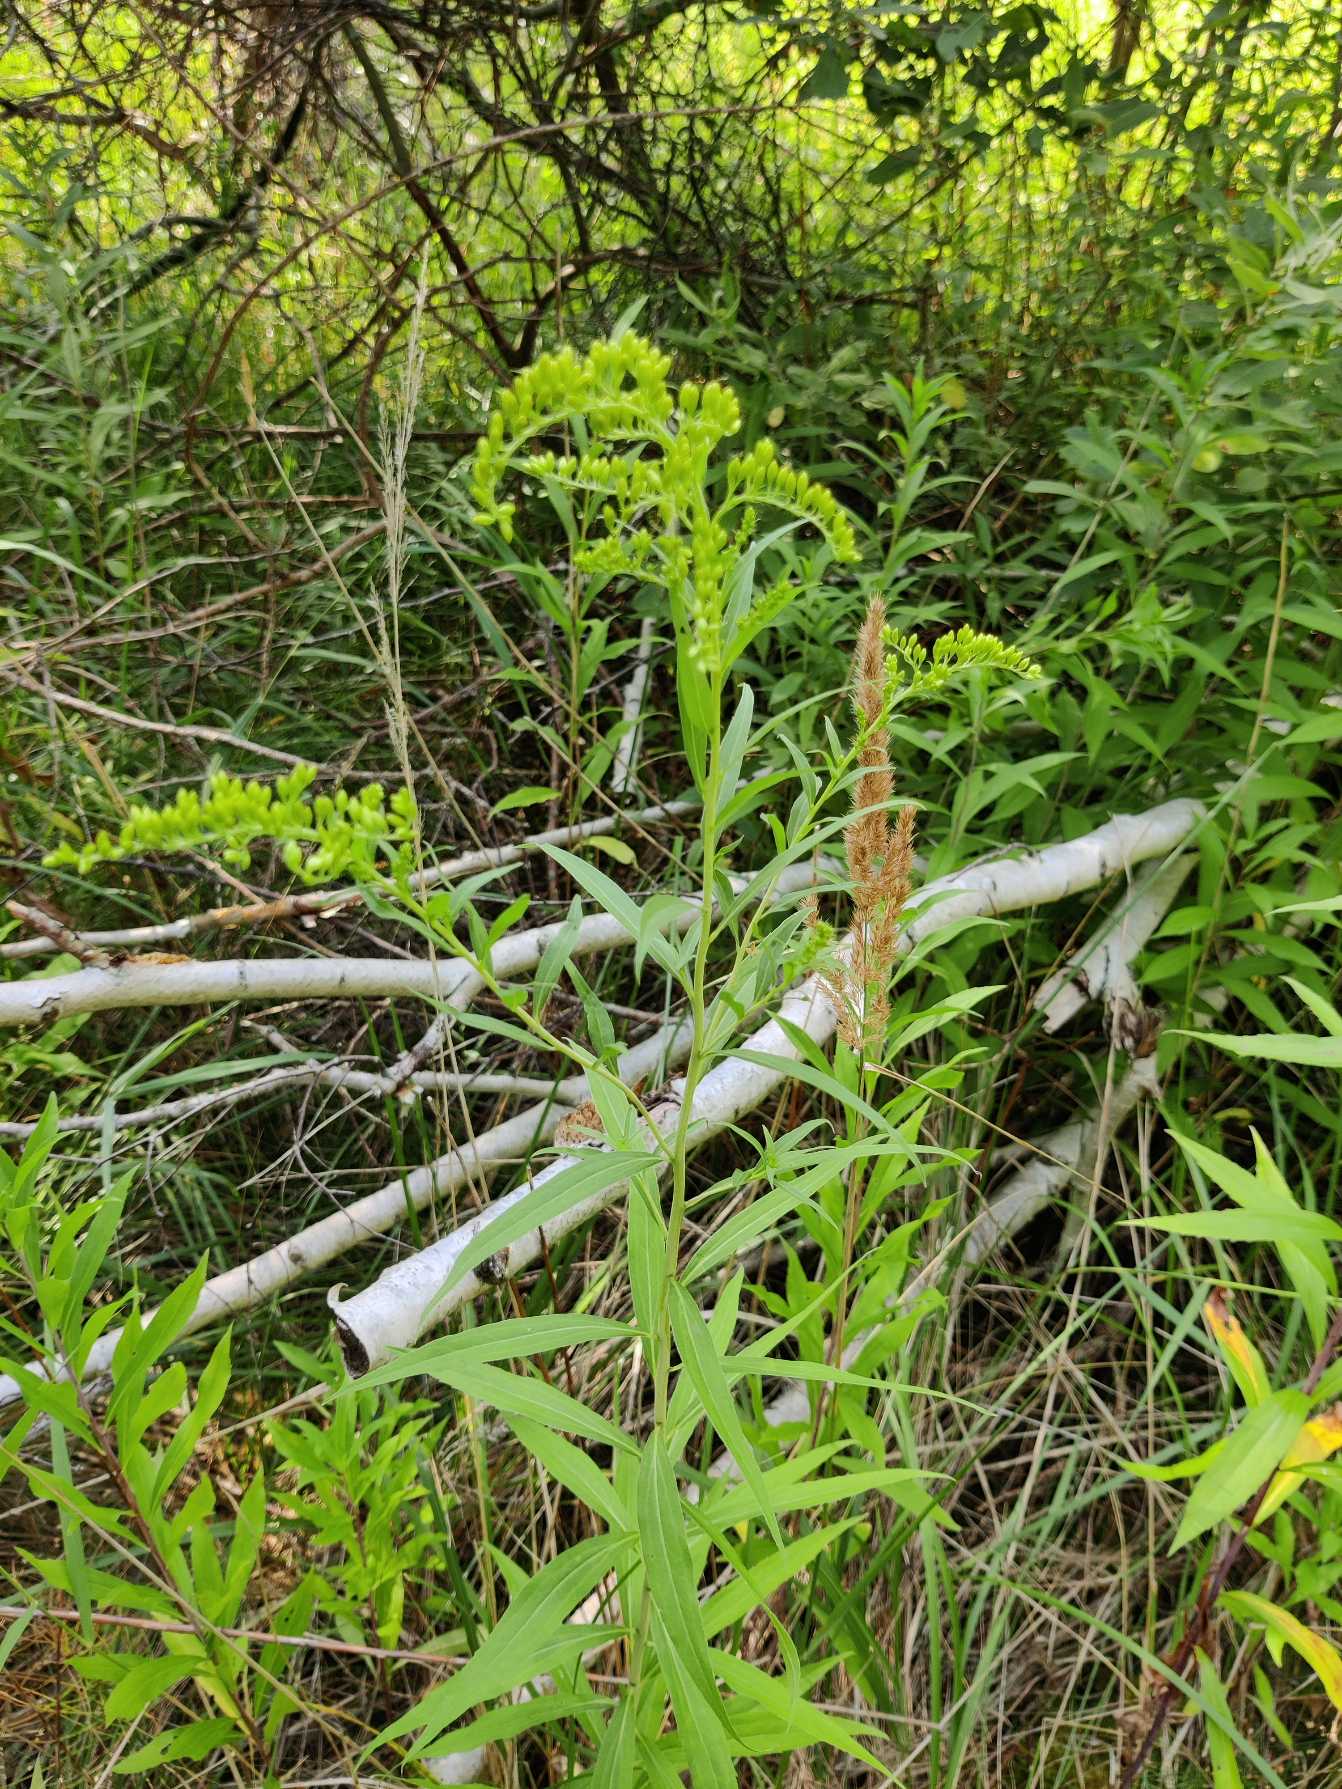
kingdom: Plantae
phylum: Tracheophyta
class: Magnoliopsida
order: Asterales
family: Asteraceae
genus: Solidago
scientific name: Solidago
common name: Gyldenrisslægten
